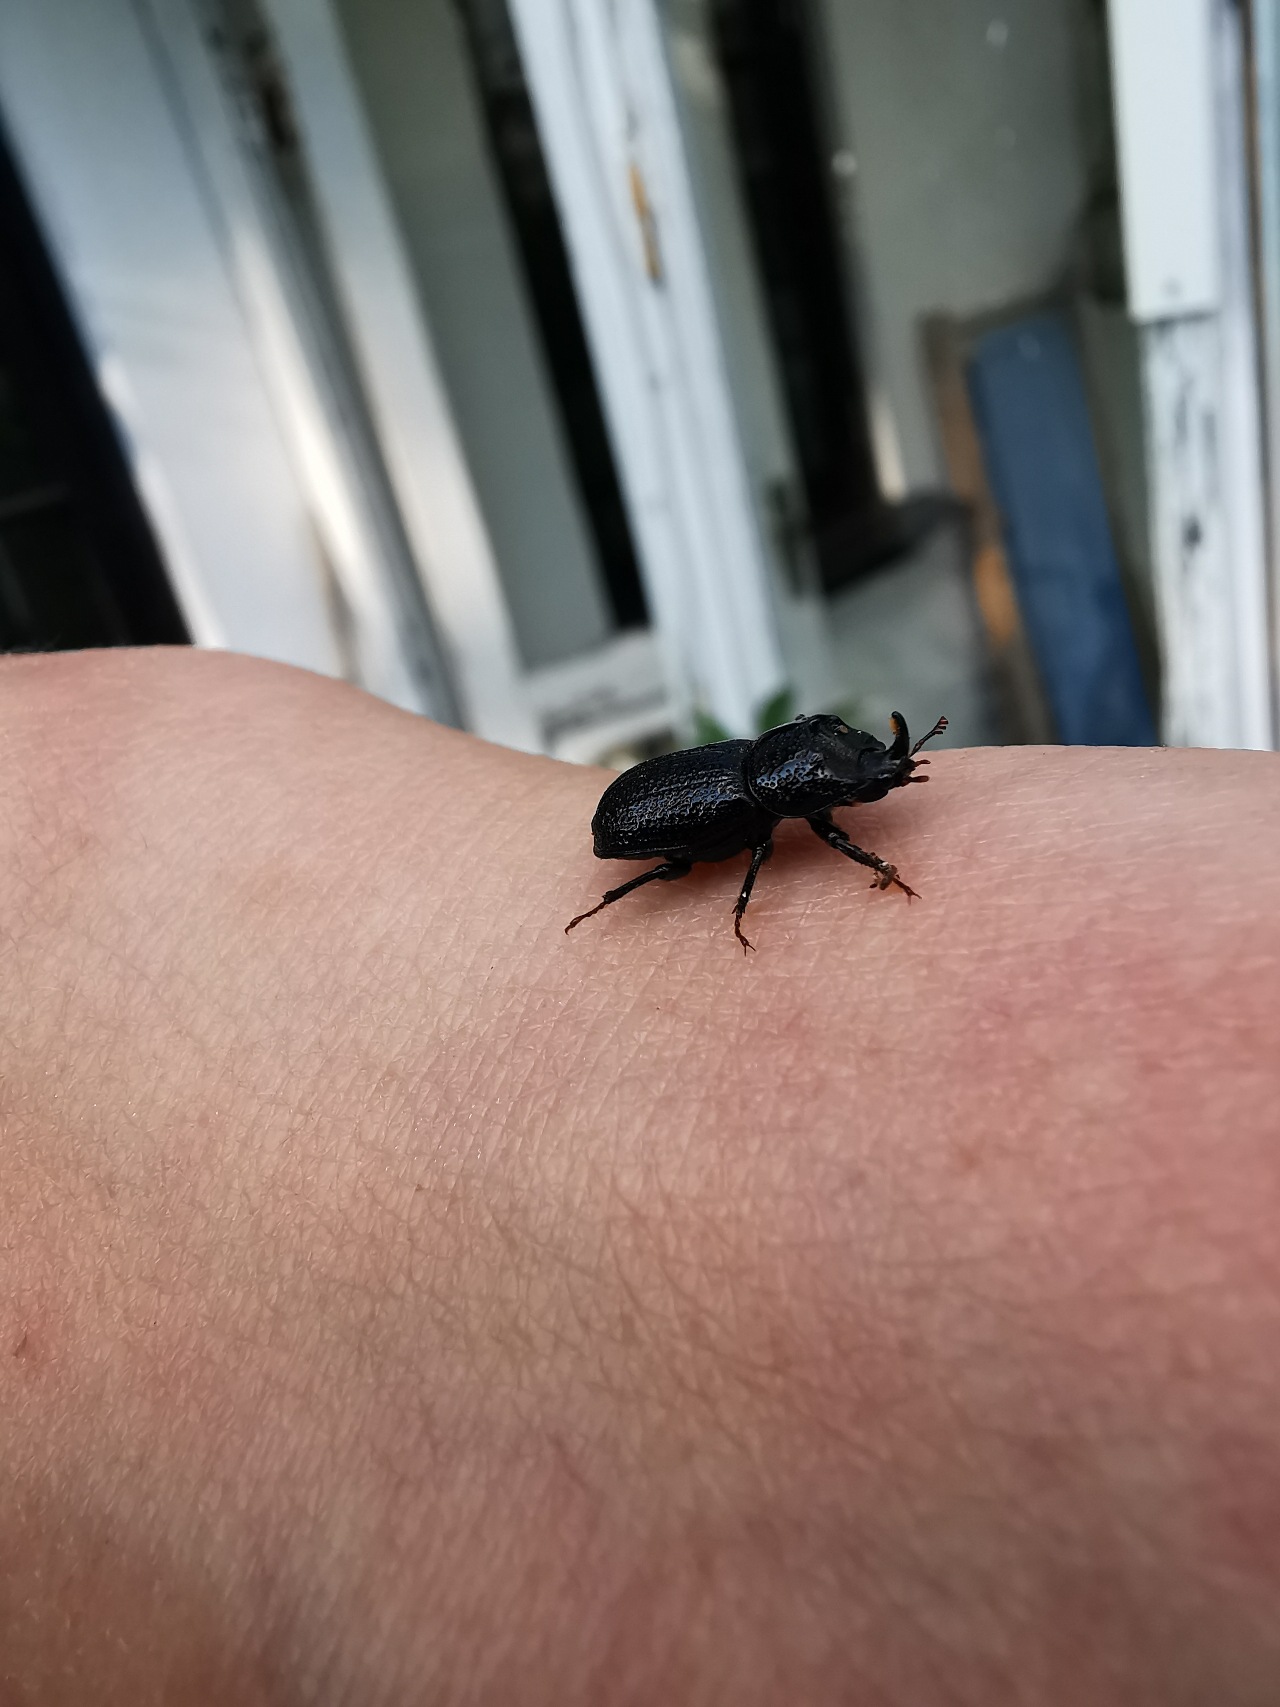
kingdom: Animalia
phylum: Arthropoda
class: Insecta
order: Coleoptera
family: Lucanidae
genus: Sinodendron
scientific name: Sinodendron cylindricum
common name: Valsehjort
